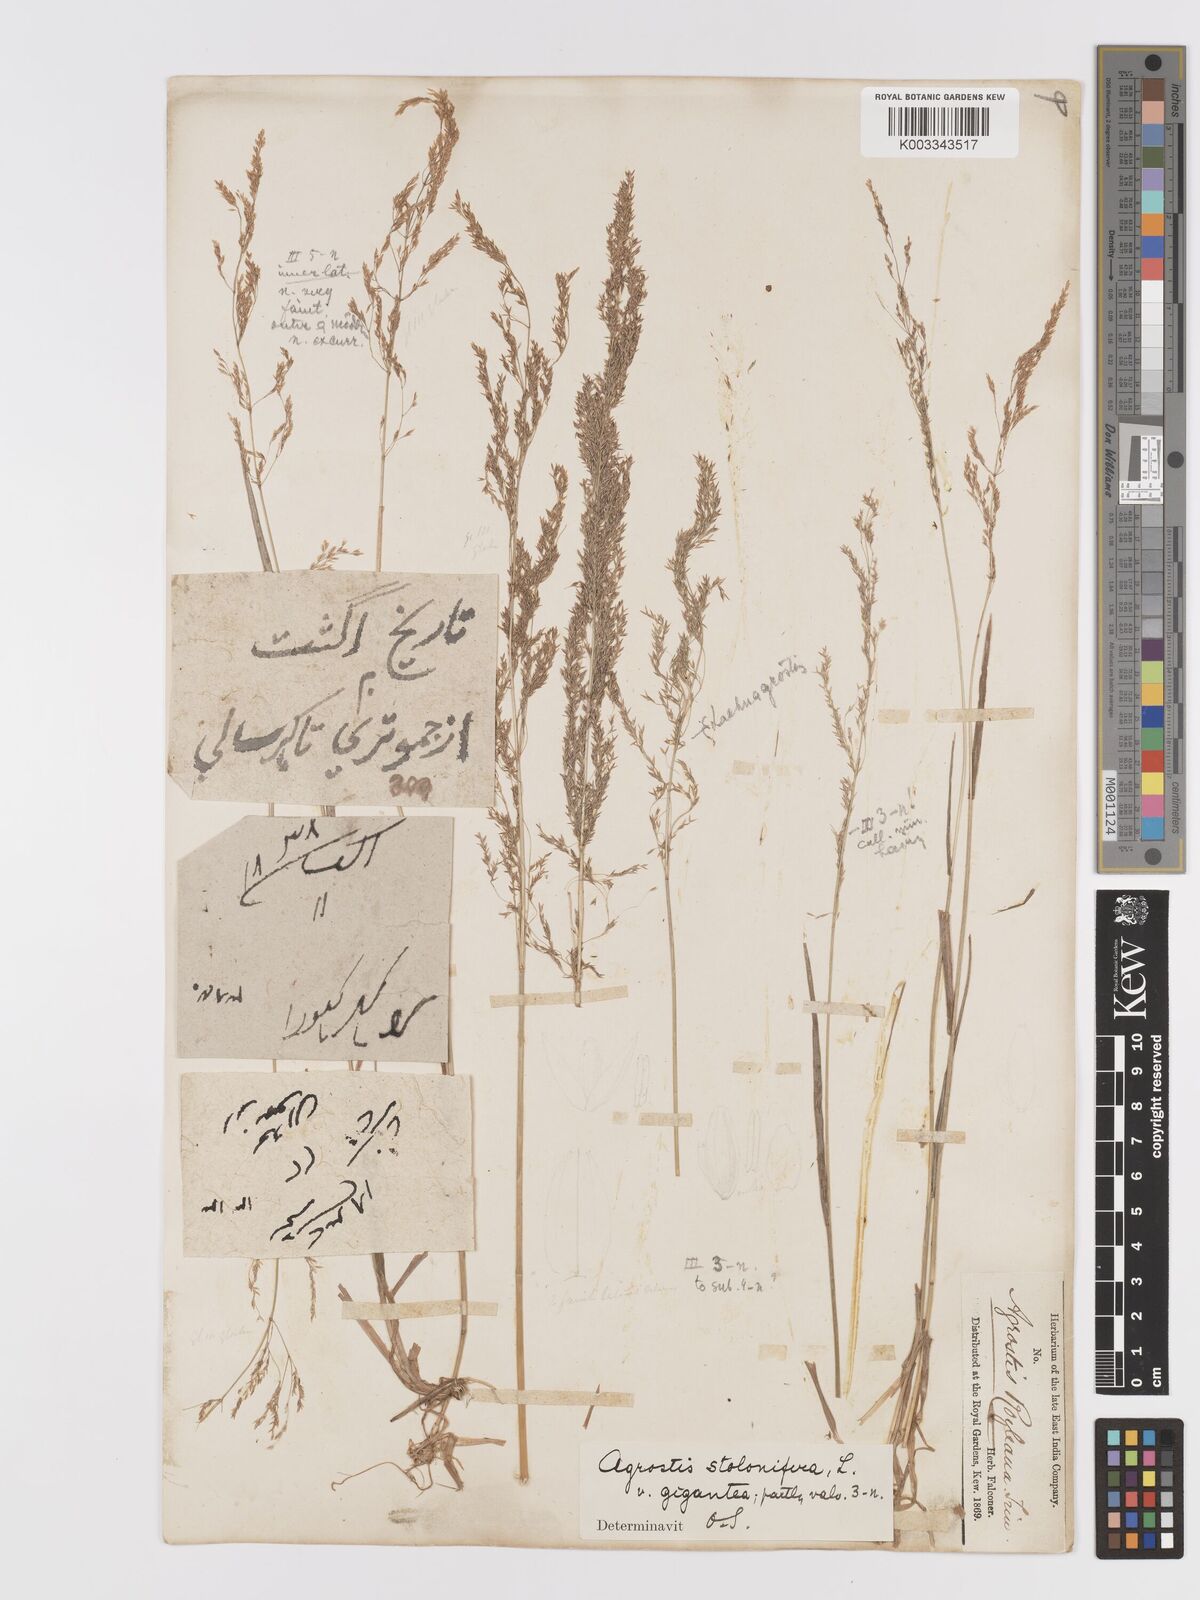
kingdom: Plantae
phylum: Tracheophyta
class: Liliopsida
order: Poales
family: Poaceae
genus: Agrostis
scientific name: Agrostis gigantea
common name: Black bent
